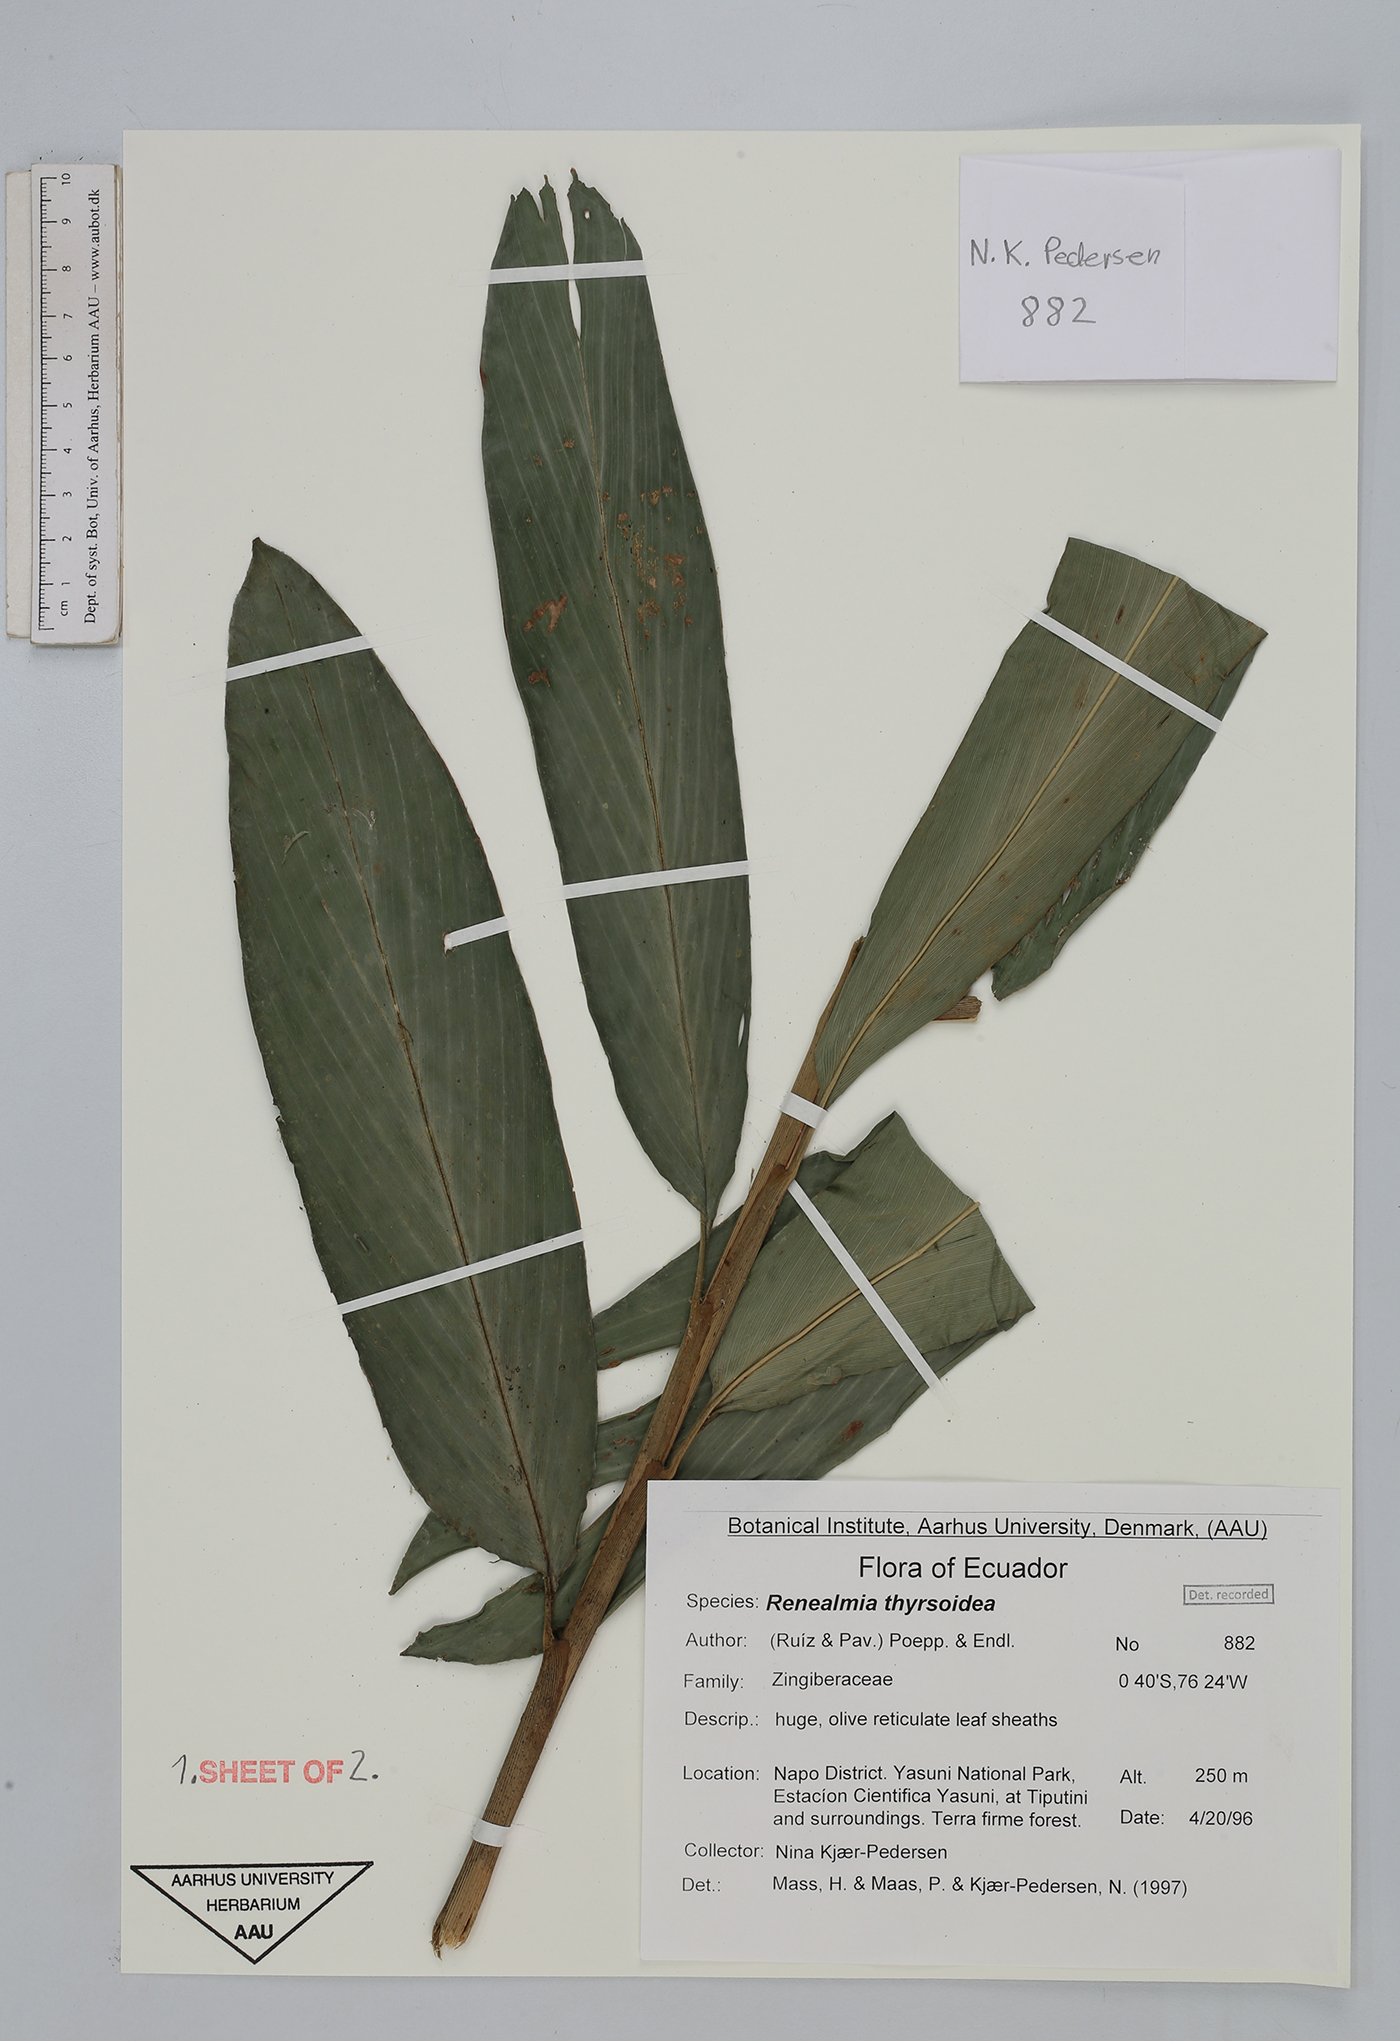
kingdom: Plantae
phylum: Tracheophyta
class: Liliopsida
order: Zingiberales
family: Zingiberaceae
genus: Renealmia
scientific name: Renealmia thyrsoidea
